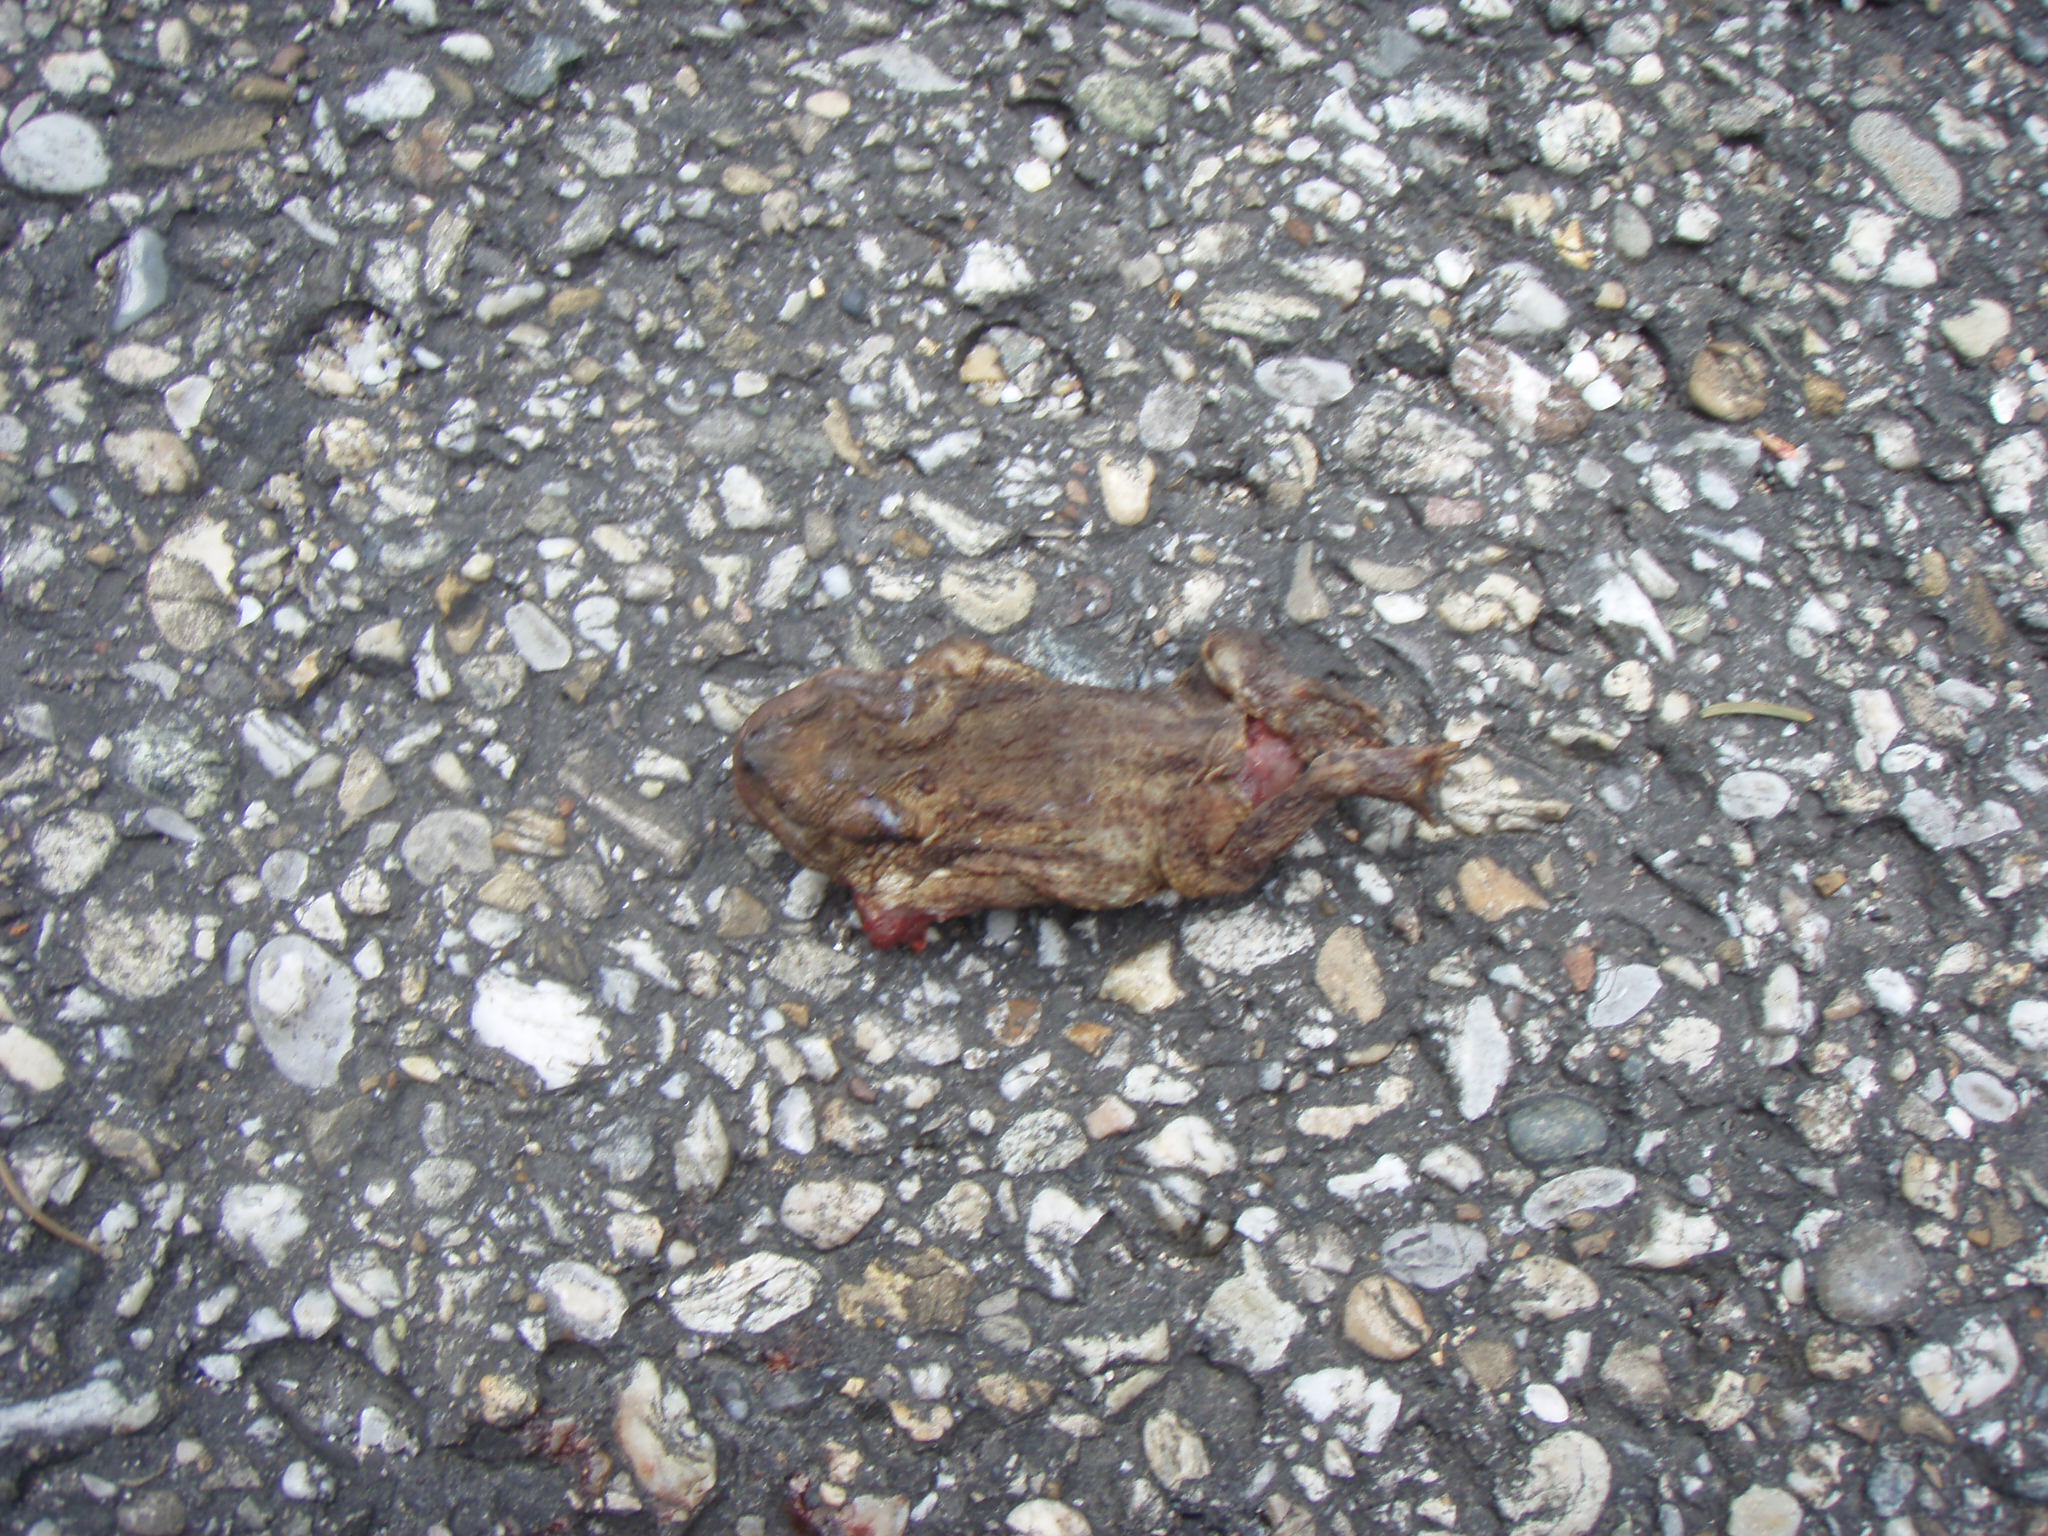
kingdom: Animalia
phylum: Chordata
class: Amphibia
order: Anura
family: Bufonidae
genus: Bufo
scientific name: Bufo bufo
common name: Common toad
